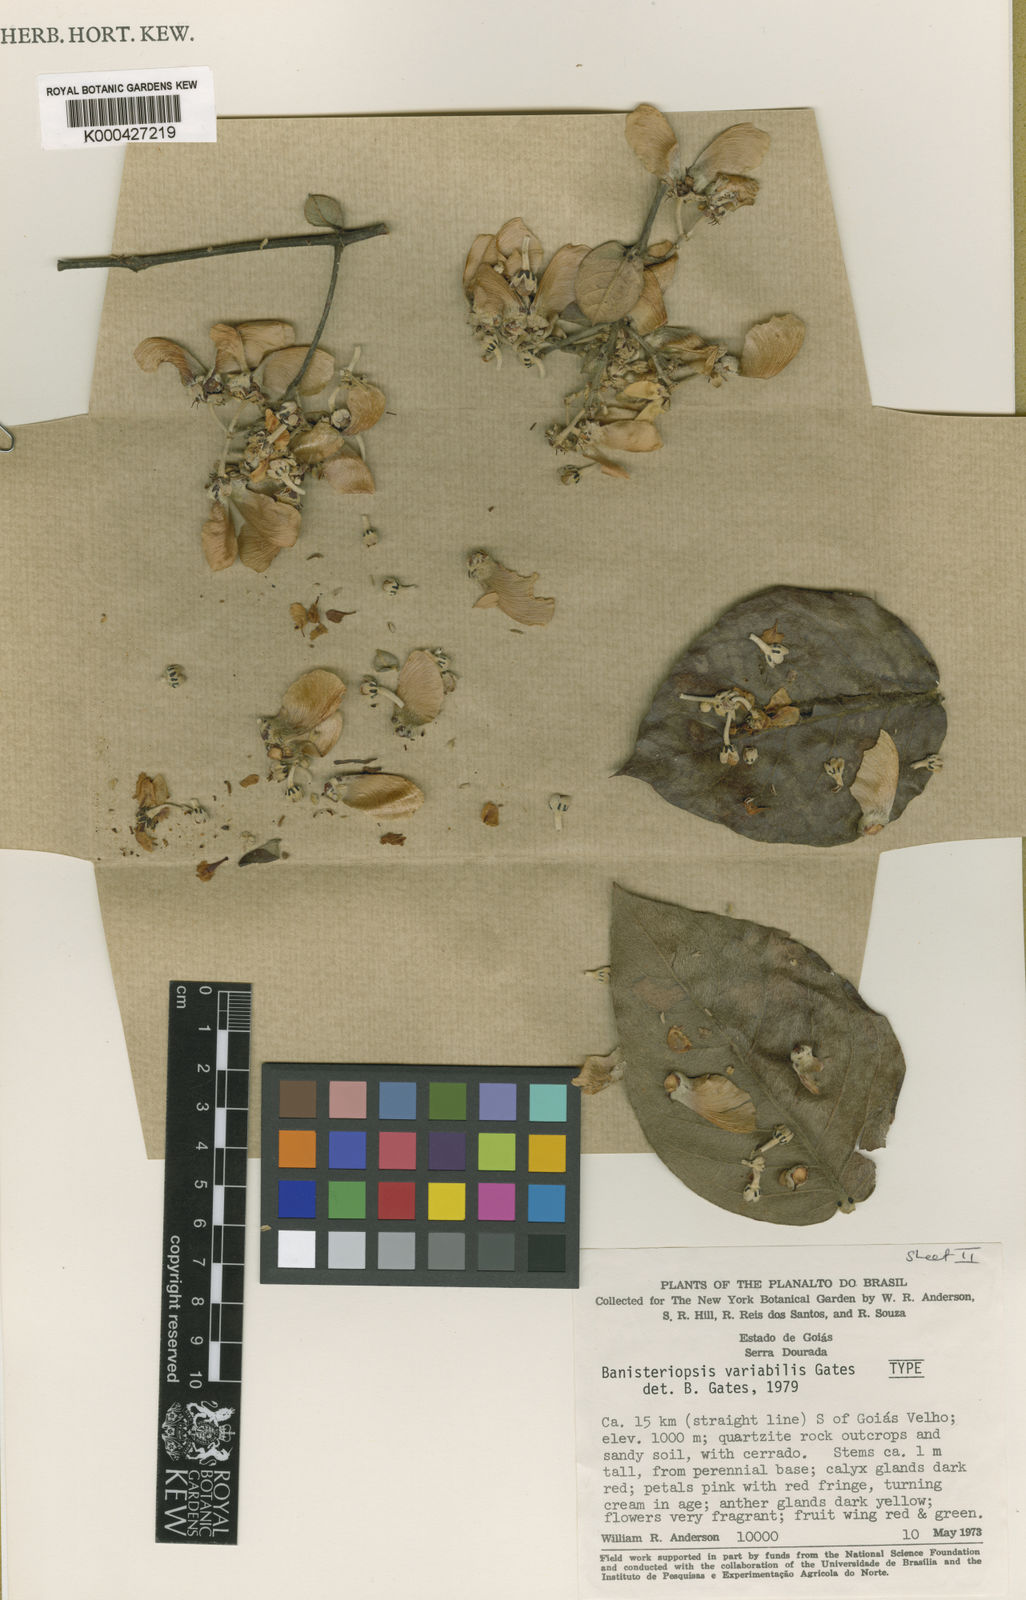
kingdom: Plantae
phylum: Tracheophyta
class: Magnoliopsida
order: Malpighiales
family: Malpighiaceae
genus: Banisteriopsis
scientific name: Banisteriopsis variabilis
